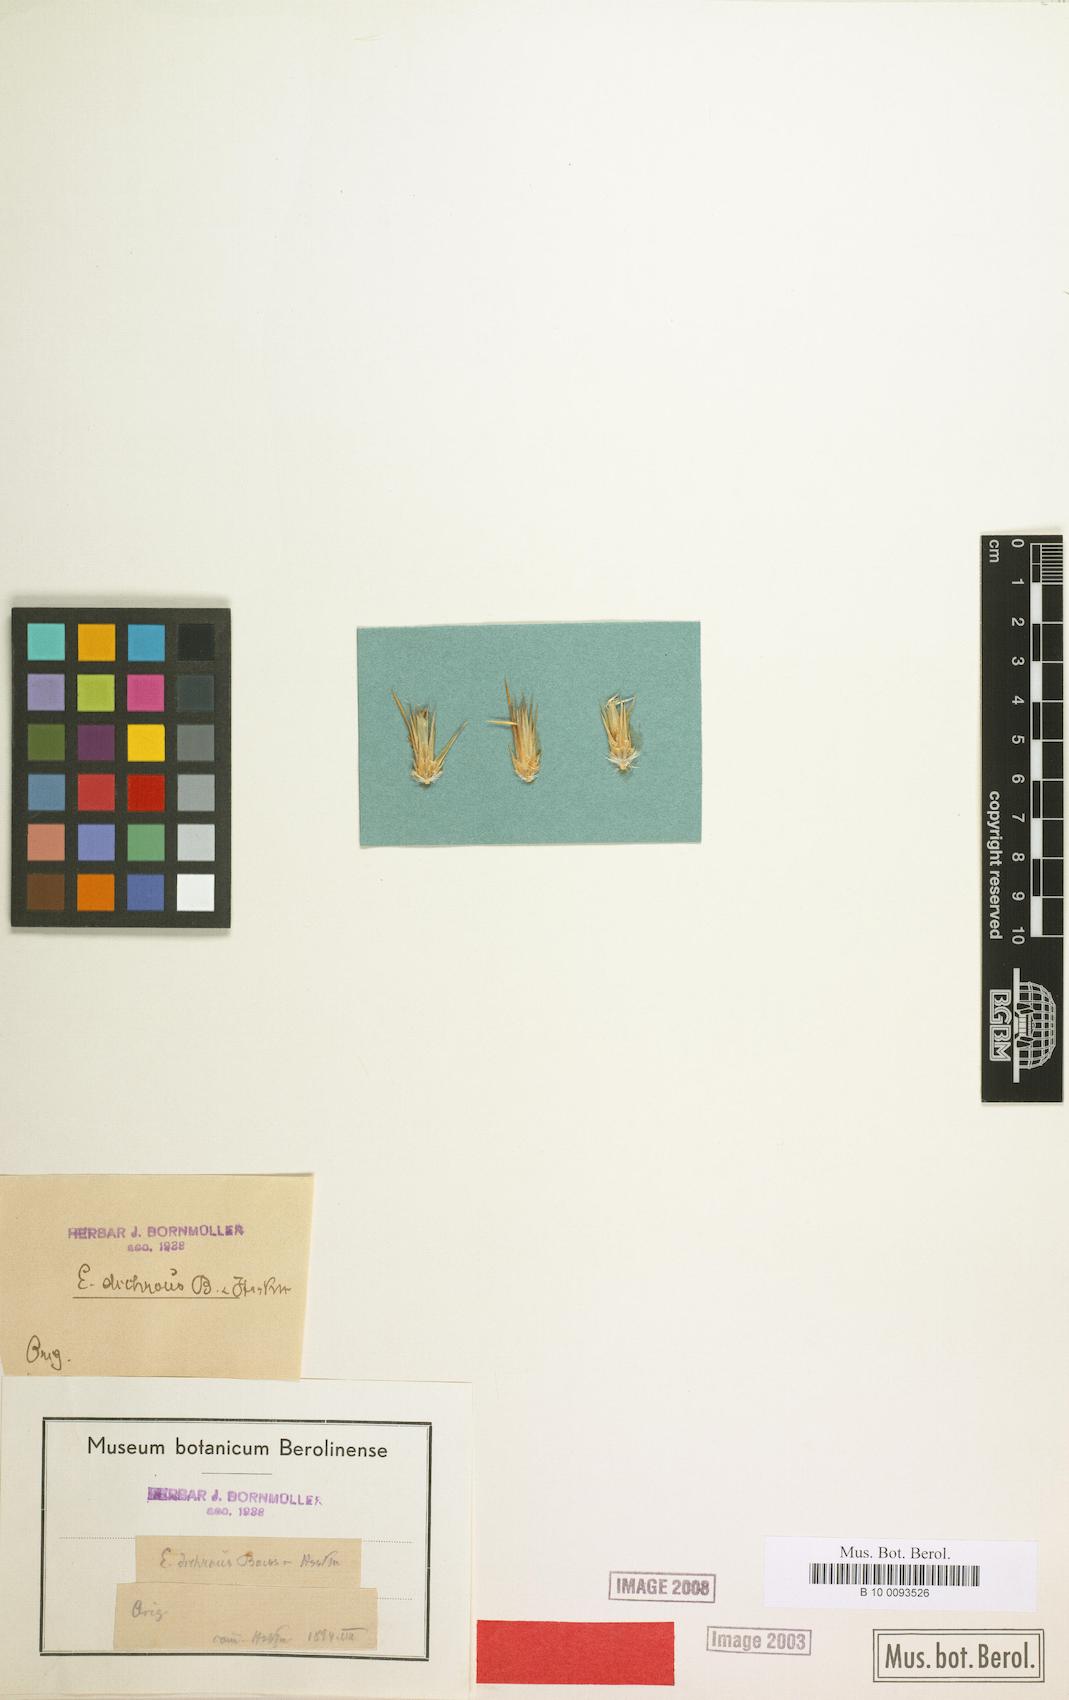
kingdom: Plantae
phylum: Tracheophyta
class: Magnoliopsida
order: Asterales
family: Asteraceae
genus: Echinops
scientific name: Echinops dichrous
